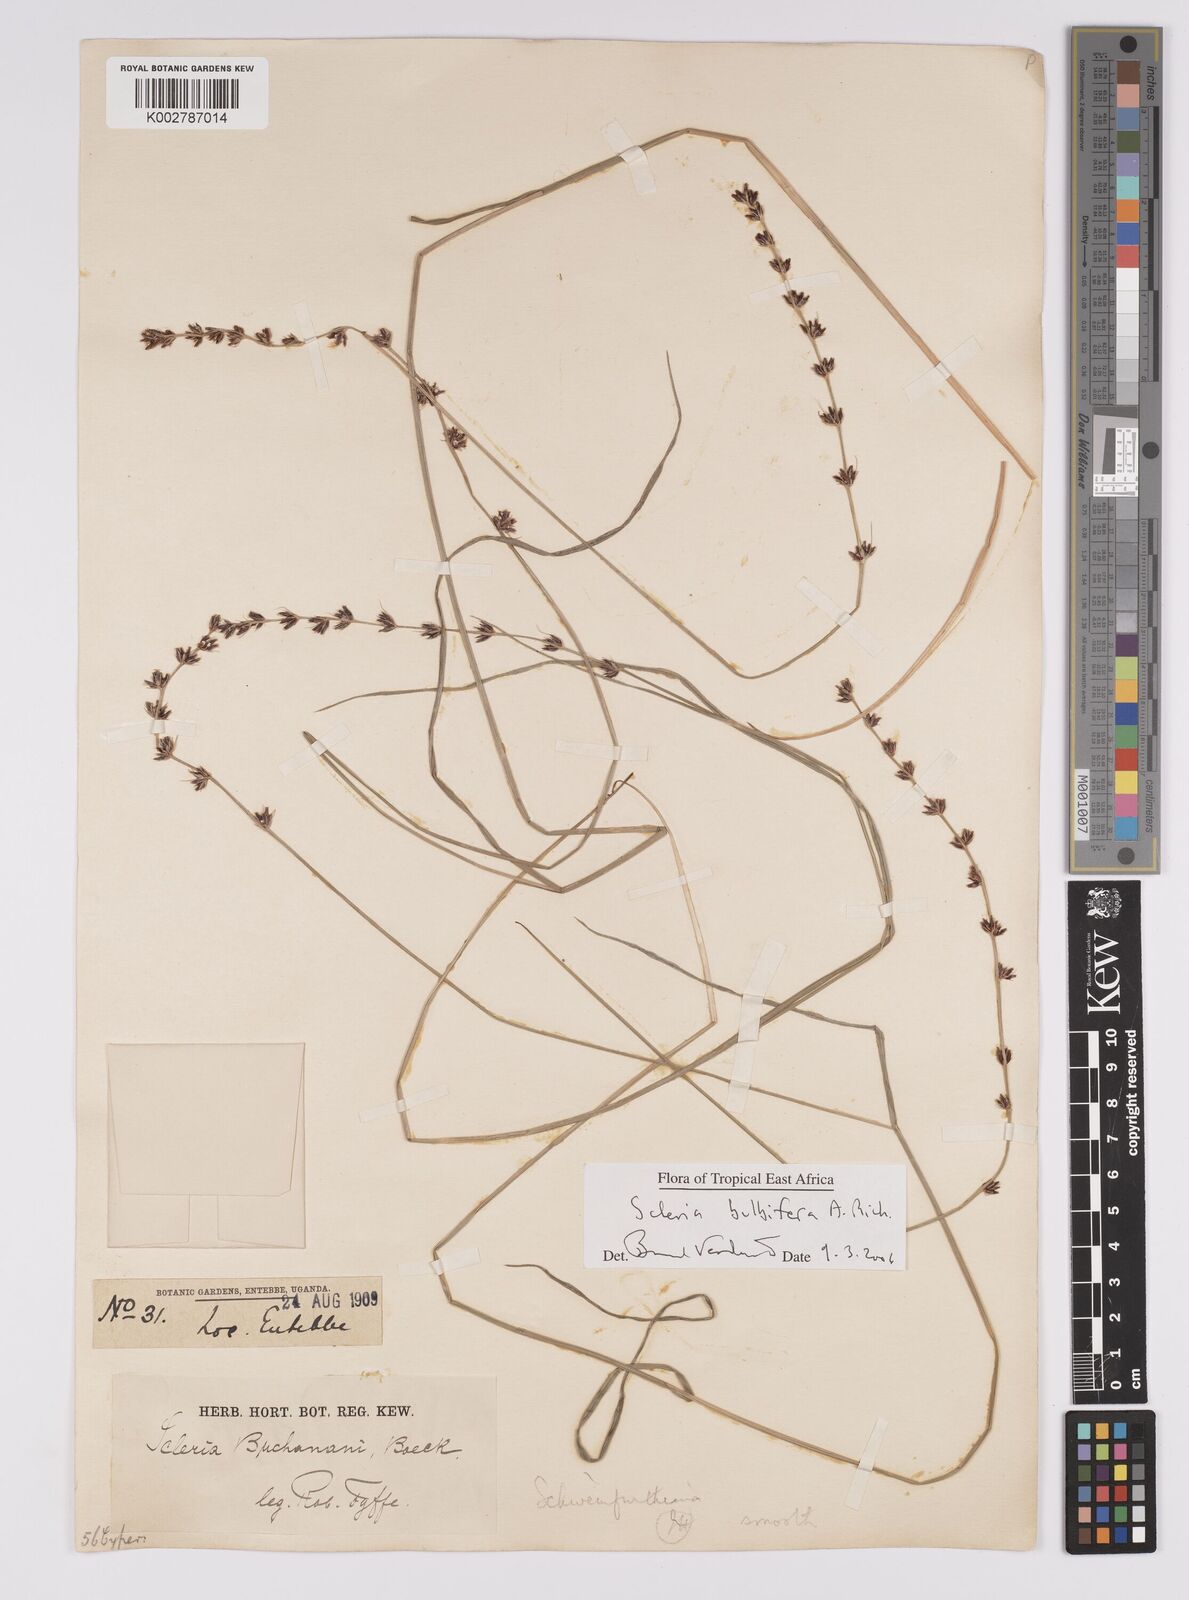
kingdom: Plantae
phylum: Tracheophyta
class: Liliopsida
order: Poales
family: Cyperaceae
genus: Scleria
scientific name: Scleria bulbifera
